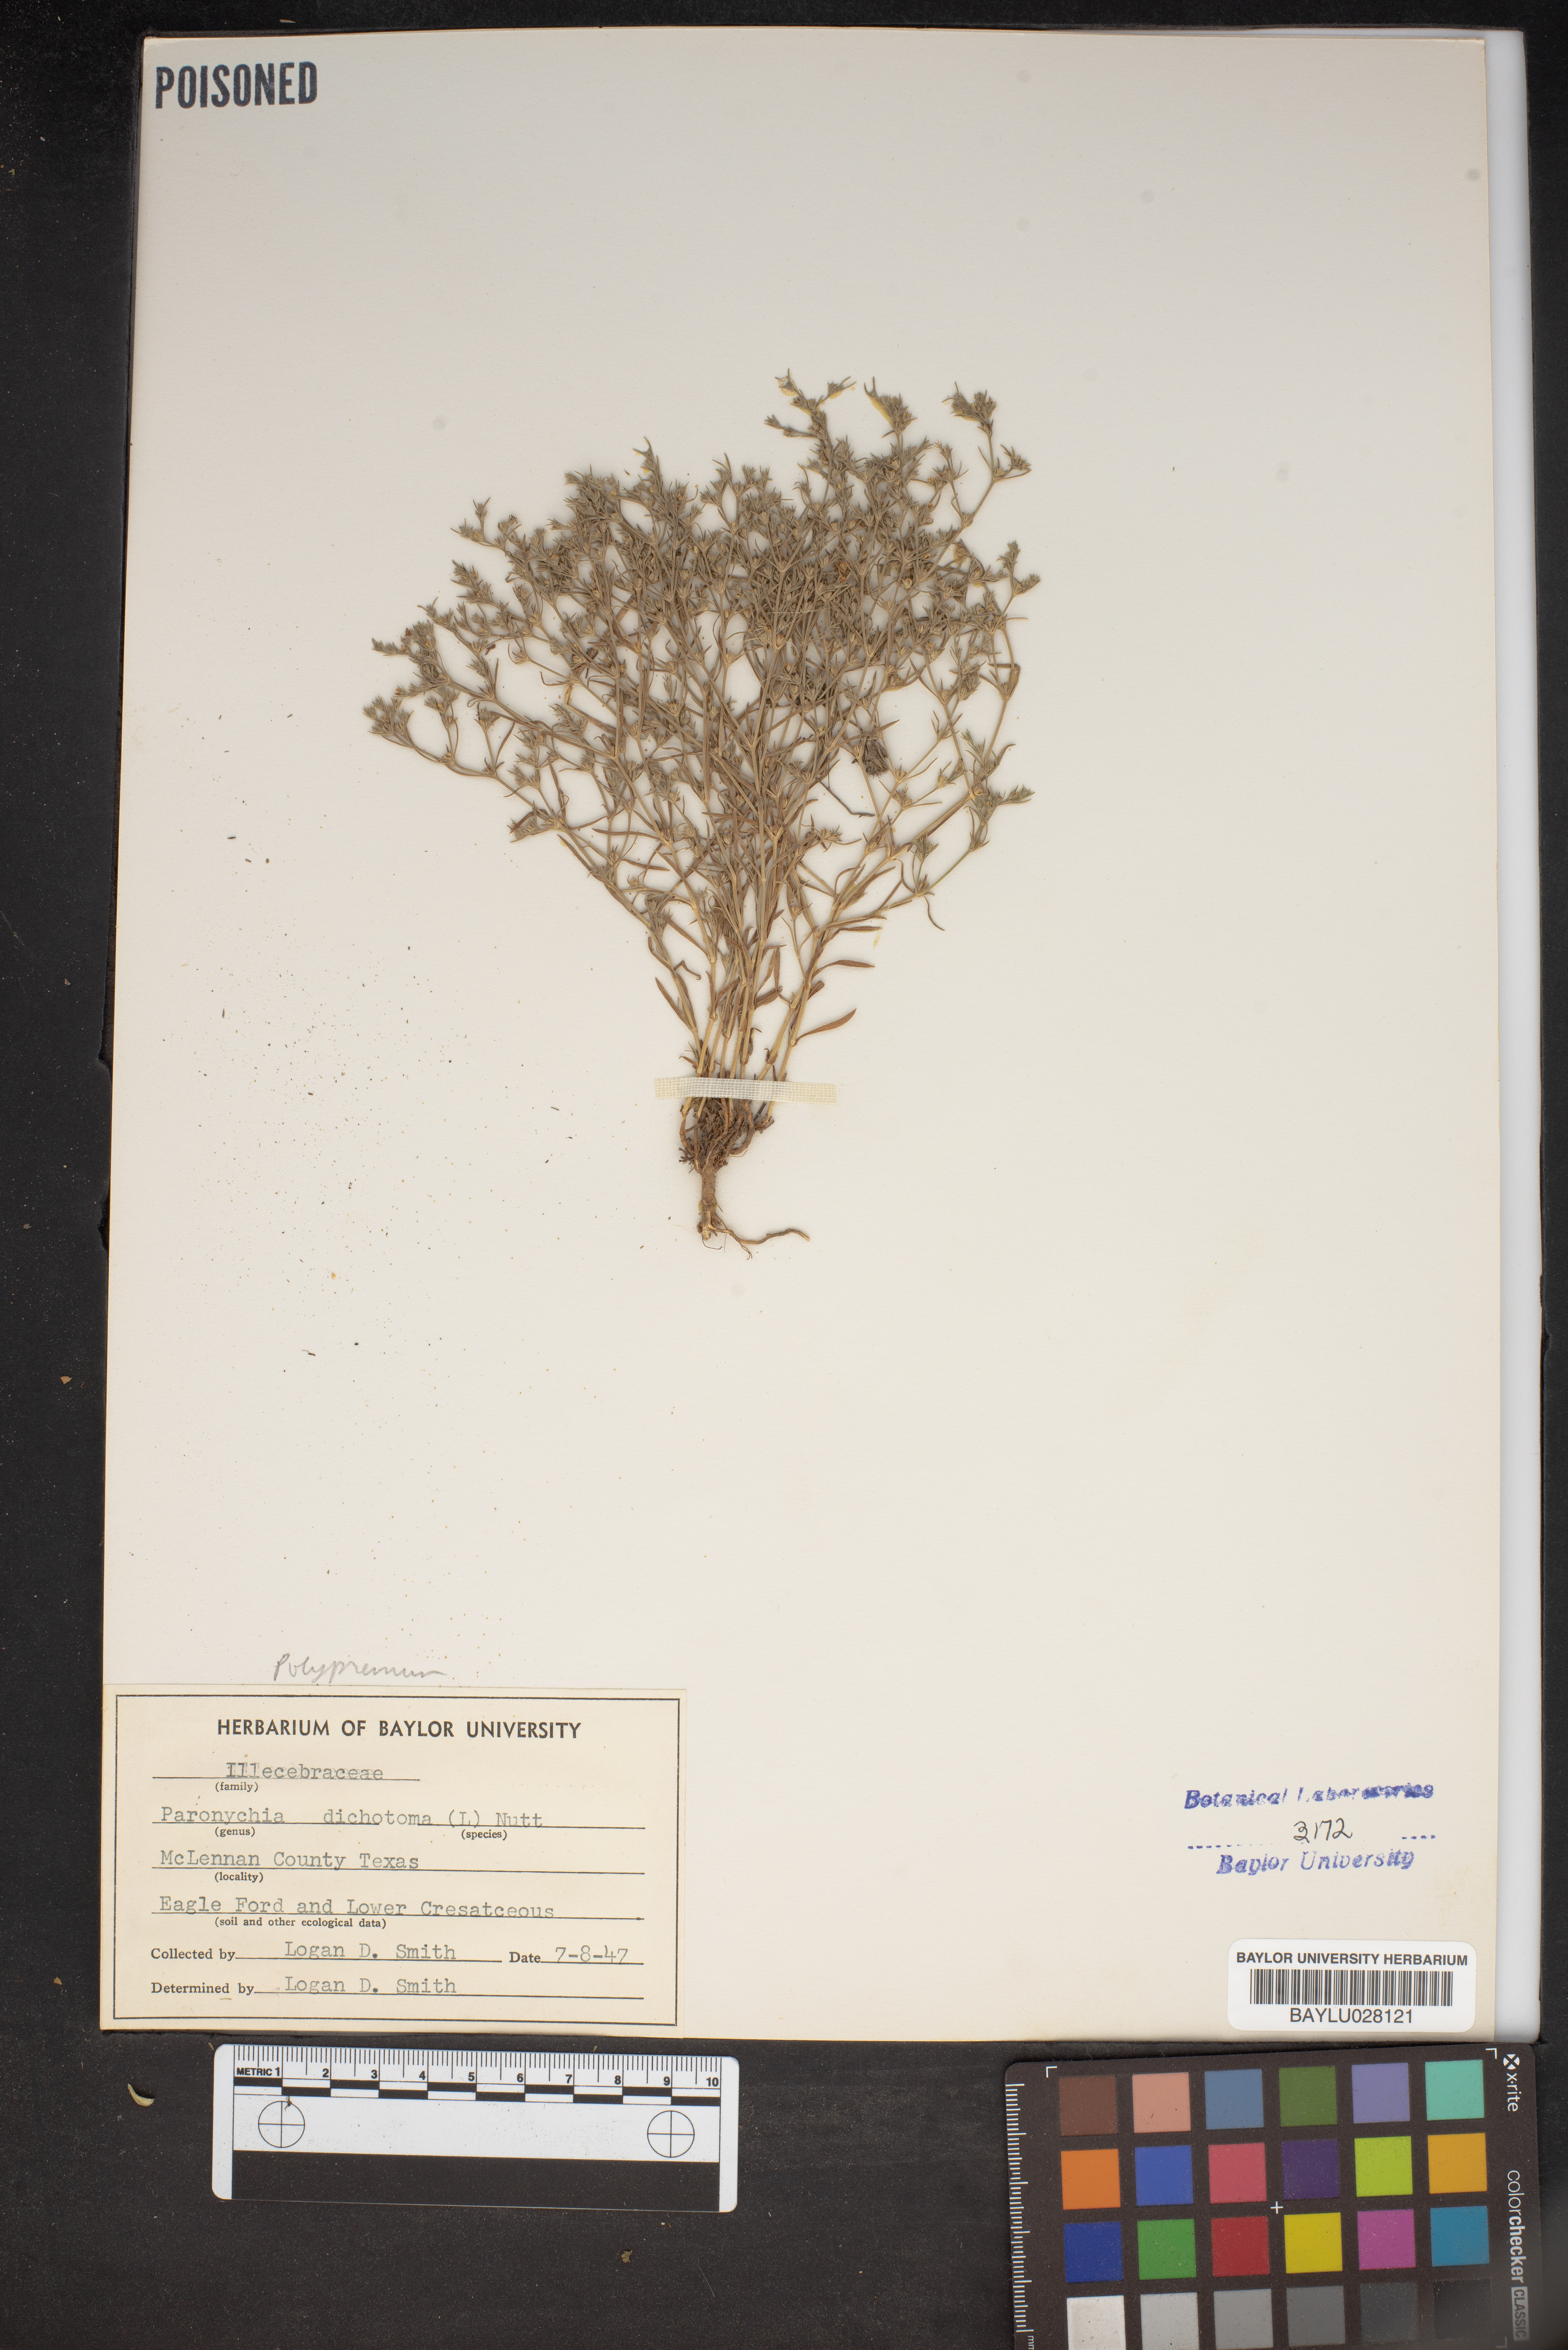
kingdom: Plantae
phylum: Tracheophyta
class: Magnoliopsida
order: Caryophyllales
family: Caryophyllaceae
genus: Paronychia
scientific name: Paronychia canadensis
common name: Canada forked nailwort
